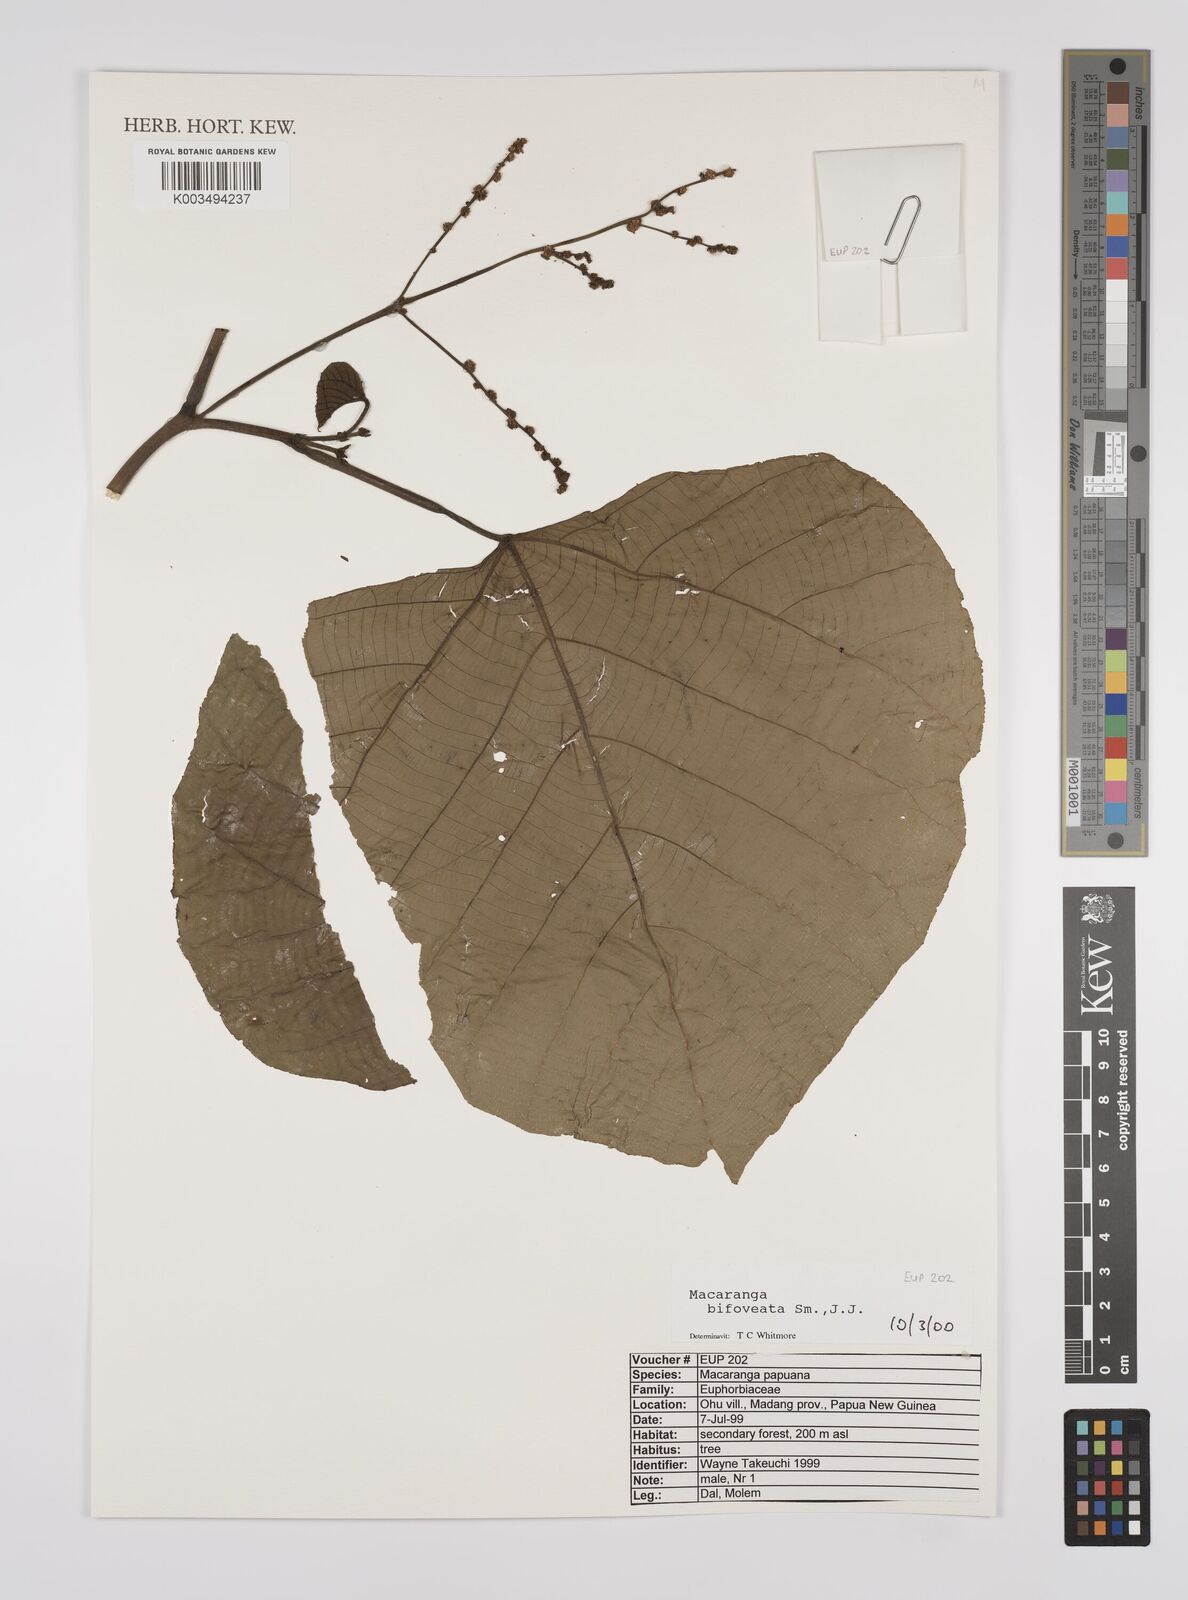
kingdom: Plantae
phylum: Tracheophyta
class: Magnoliopsida
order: Malpighiales
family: Euphorbiaceae
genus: Macaranga
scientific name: Macaranga bifoveata
